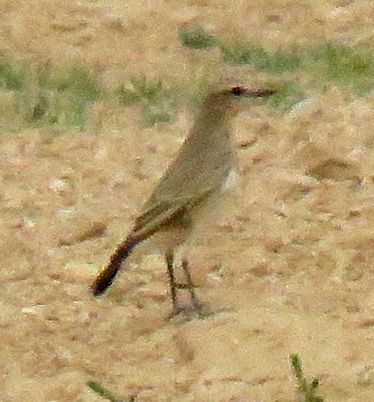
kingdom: Animalia
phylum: Chordata
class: Aves
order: Passeriformes
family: Muscicapidae
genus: Oenanthe
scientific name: Oenanthe oenanthe
